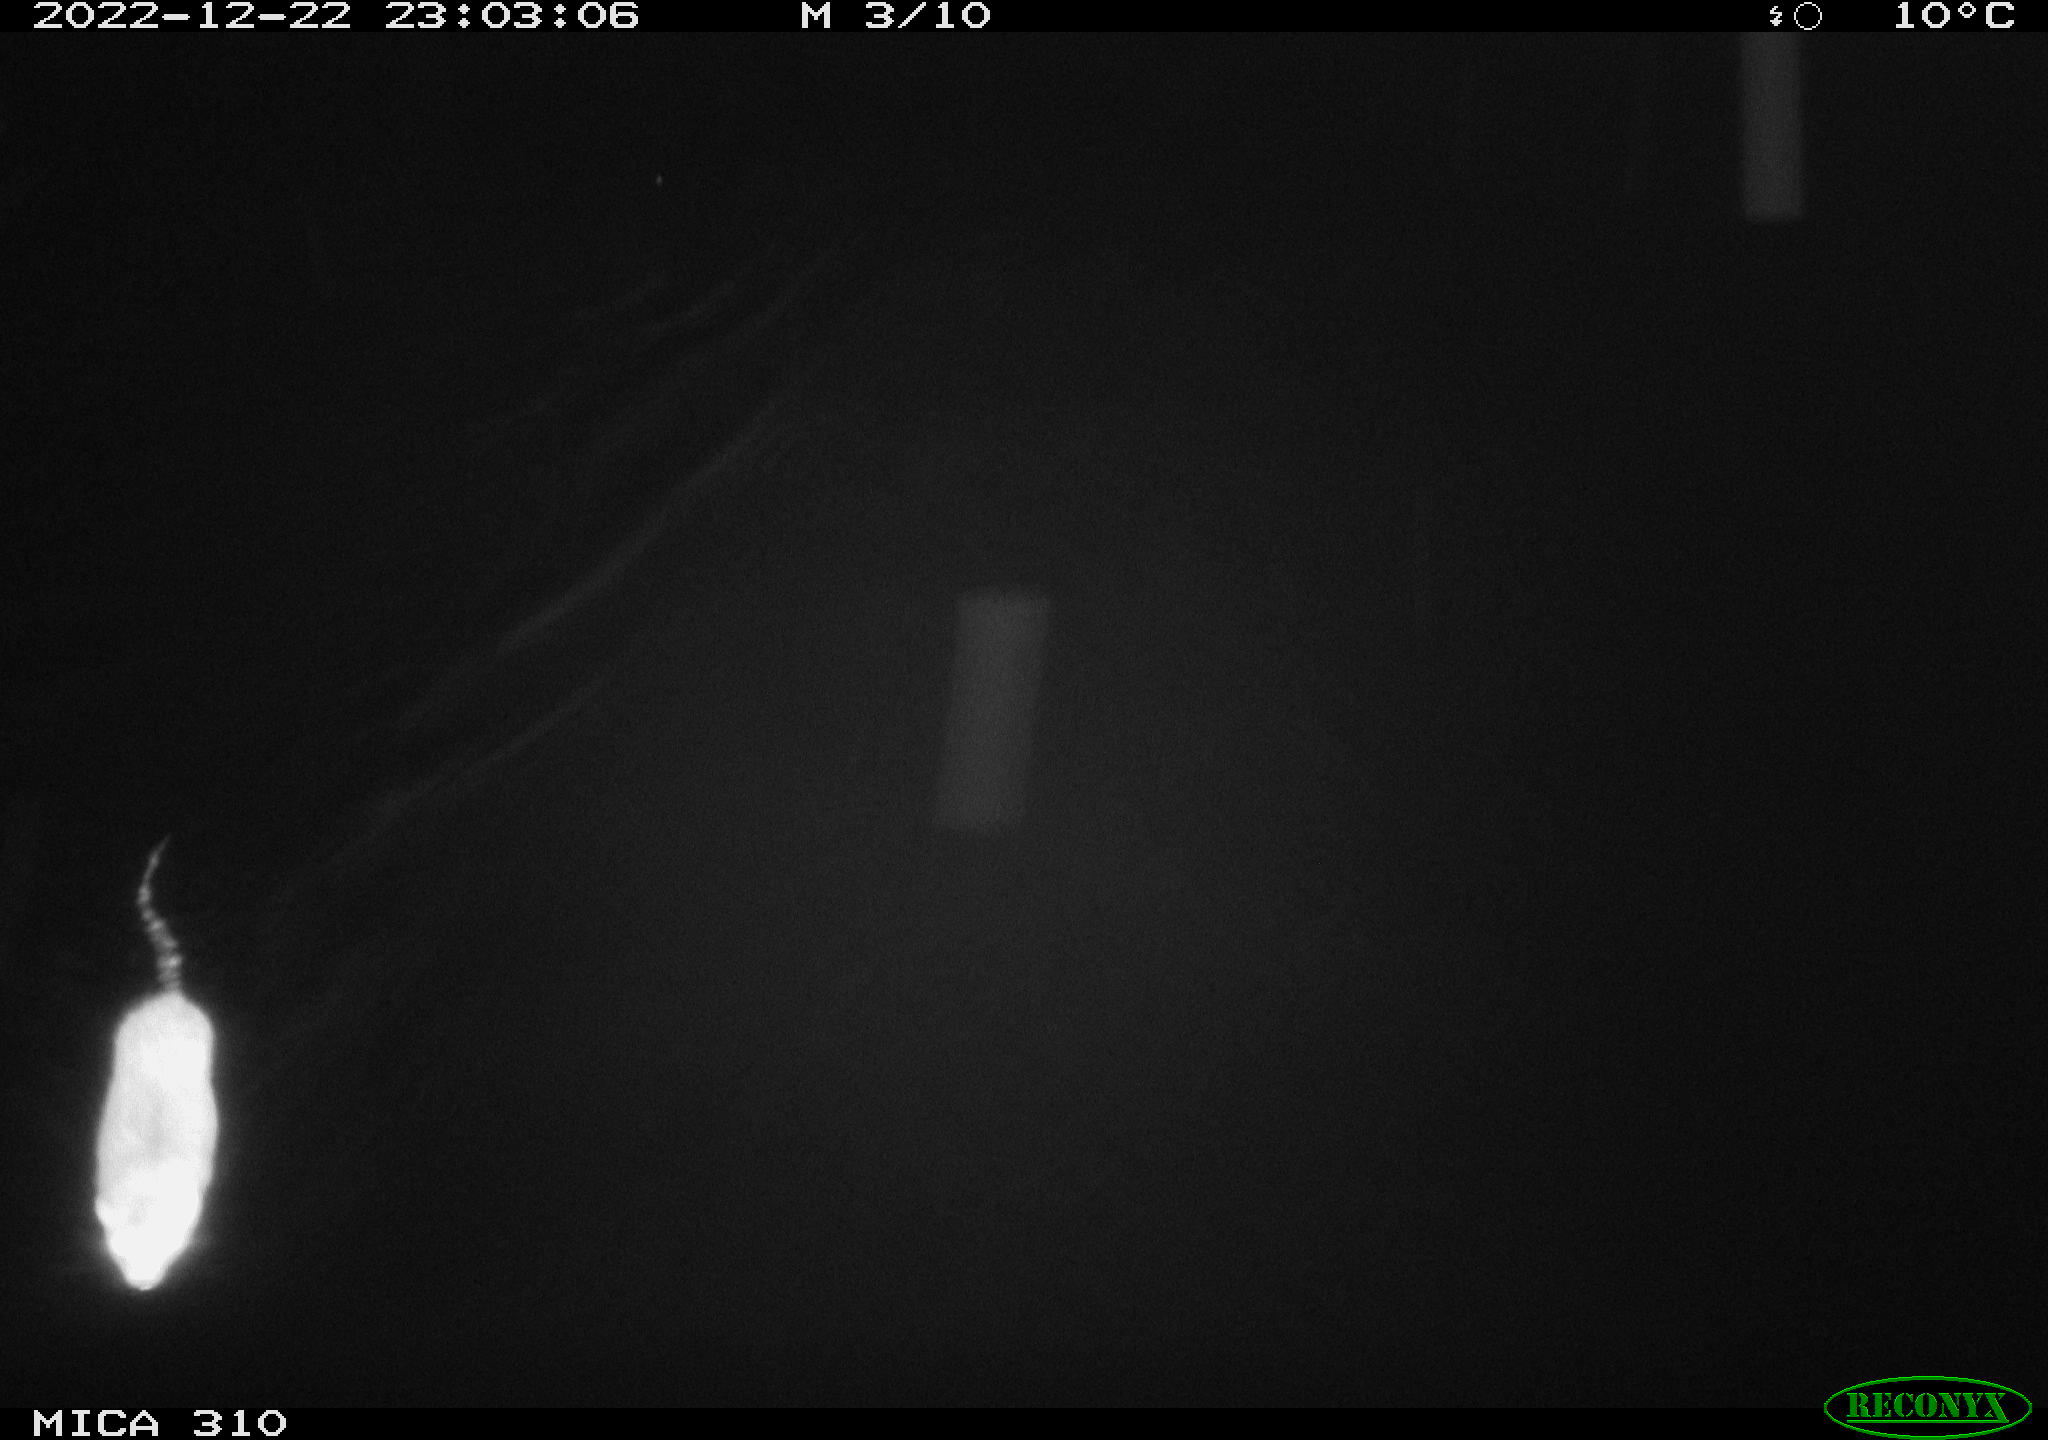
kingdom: Animalia
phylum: Chordata
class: Mammalia
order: Rodentia
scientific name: Rodentia
